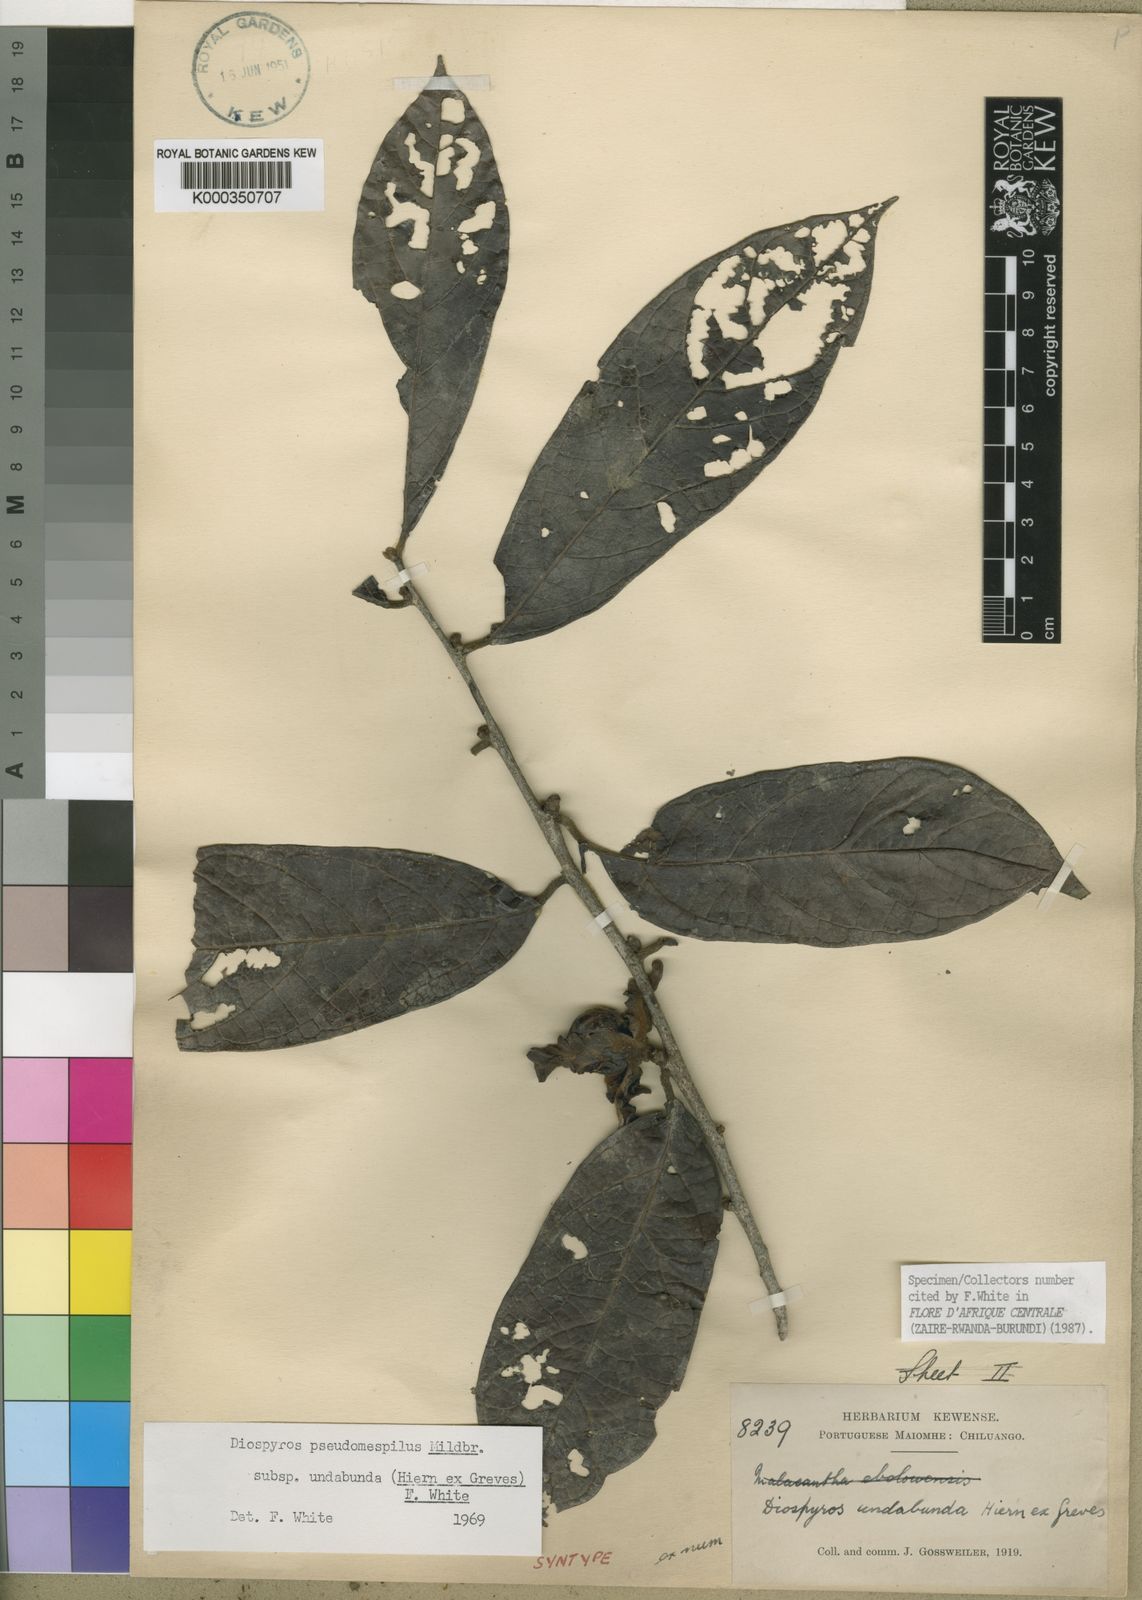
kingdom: Plantae
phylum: Tracheophyta
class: Magnoliopsida
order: Ericales
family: Ebenaceae
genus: Diospyros
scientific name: Diospyros pseudomespilus
